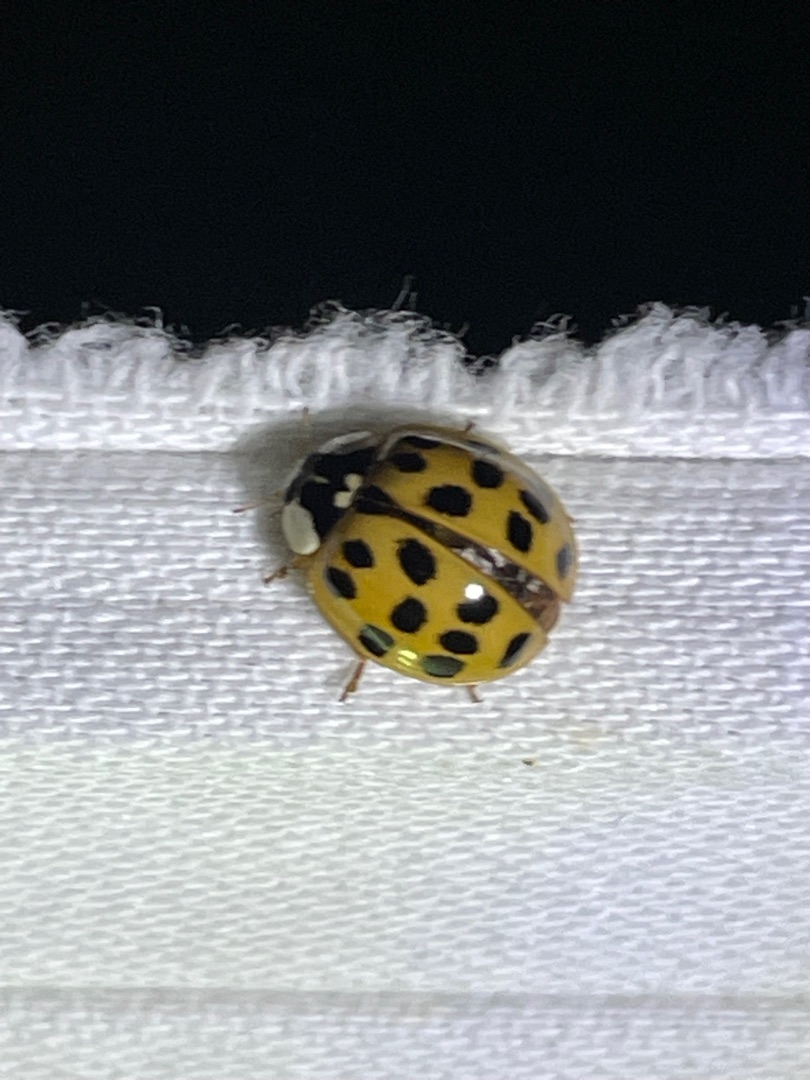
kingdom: Animalia
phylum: Arthropoda
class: Insecta
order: Coleoptera
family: Coccinellidae
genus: Harmonia
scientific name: Harmonia axyridis
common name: Harlekinmariehøne
